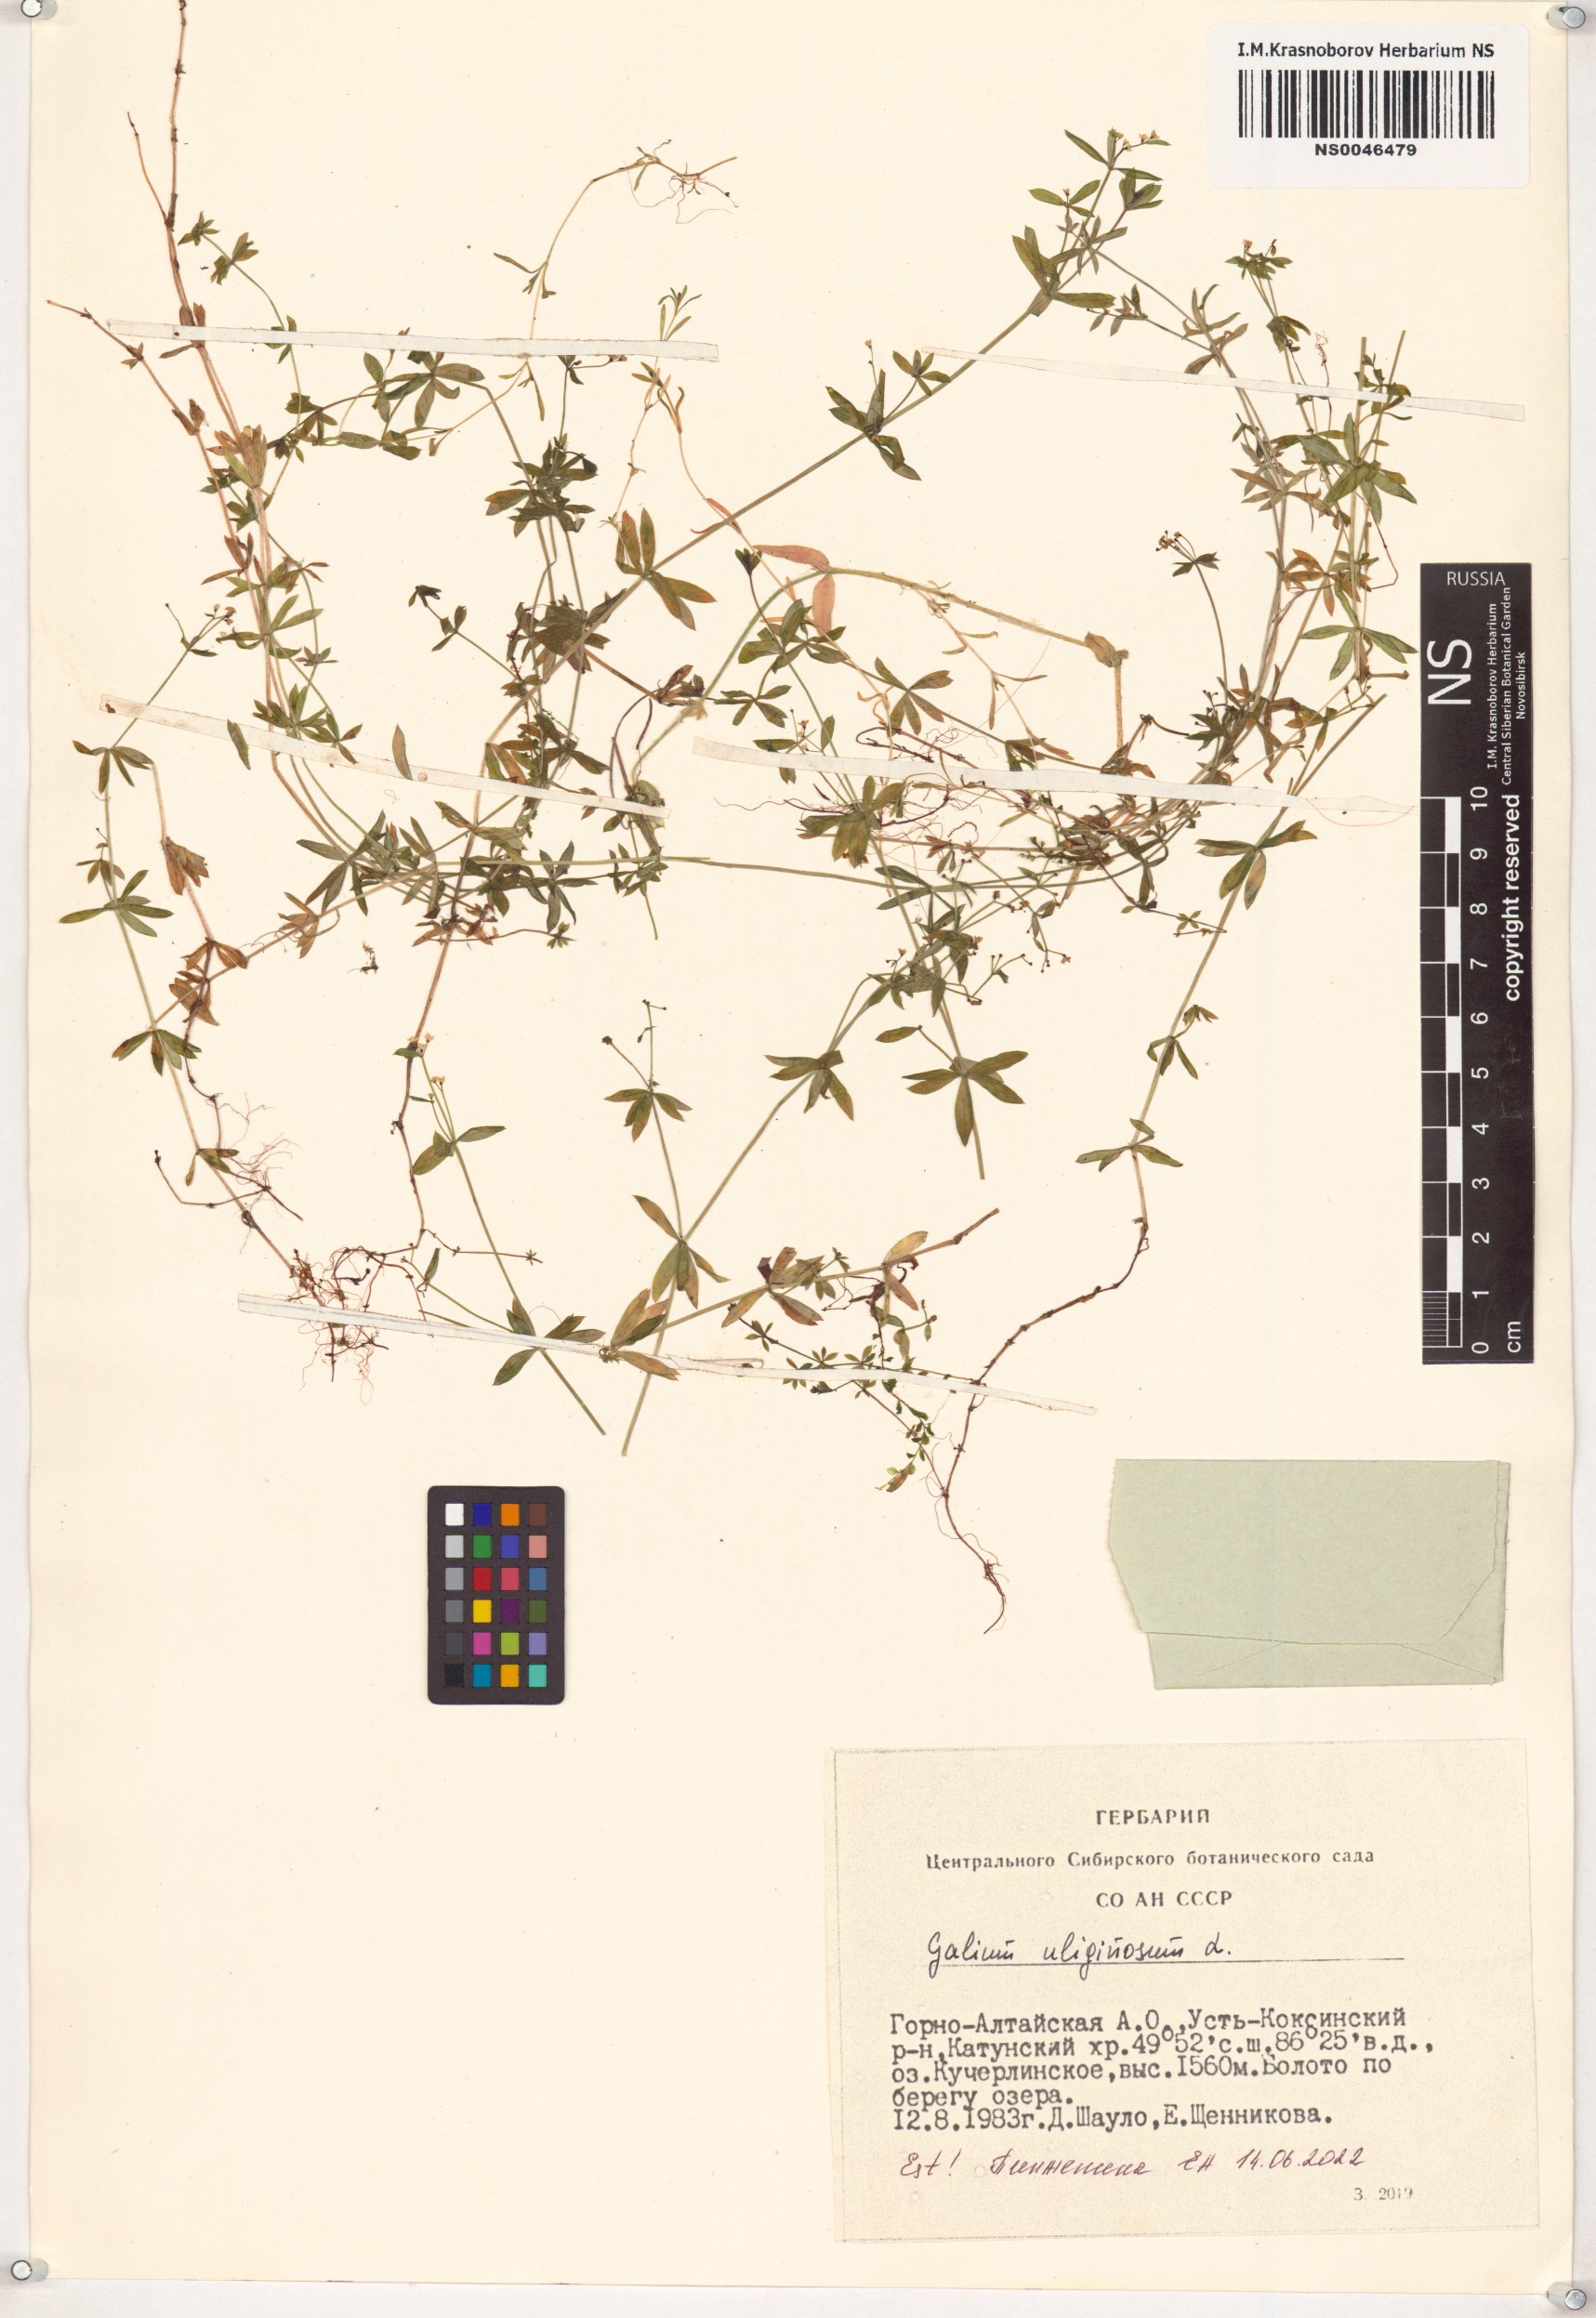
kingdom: Plantae
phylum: Tracheophyta
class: Magnoliopsida
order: Gentianales
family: Rubiaceae
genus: Galium
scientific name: Galium uliginosum
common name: Fen bedstraw
